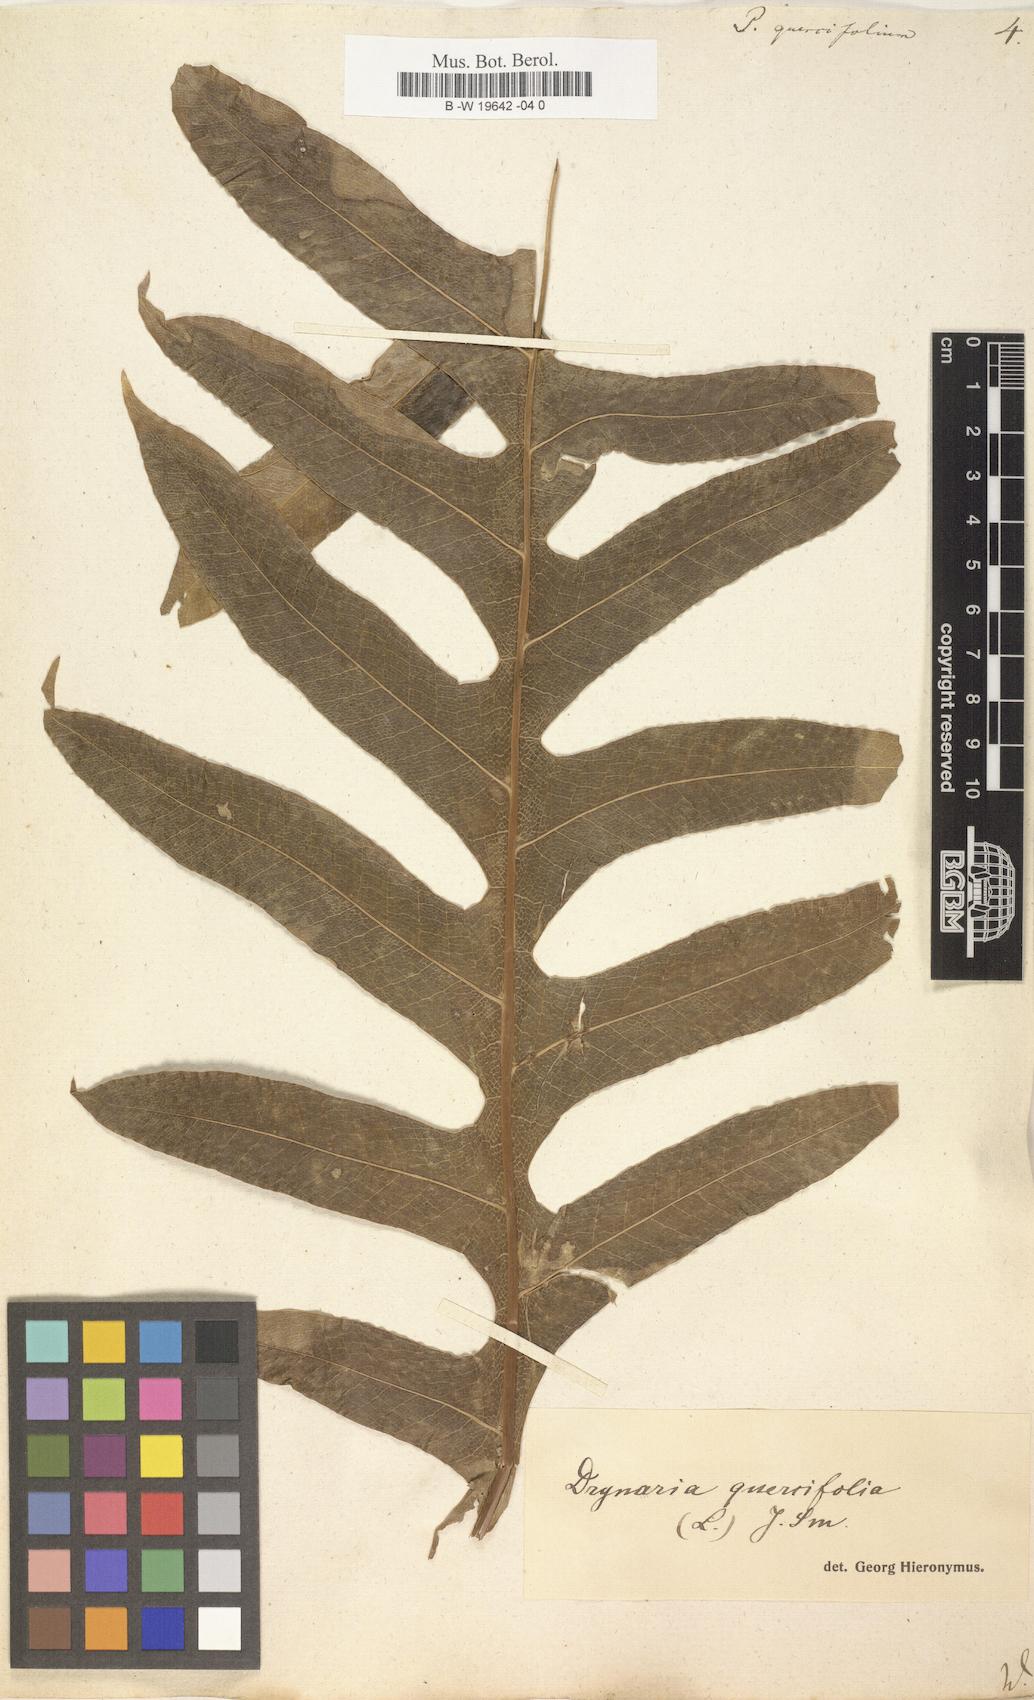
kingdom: Plantae
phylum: Tracheophyta
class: Polypodiopsida
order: Polypodiales
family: Polypodiaceae
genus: Drynaria
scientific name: Drynaria quercifolia
